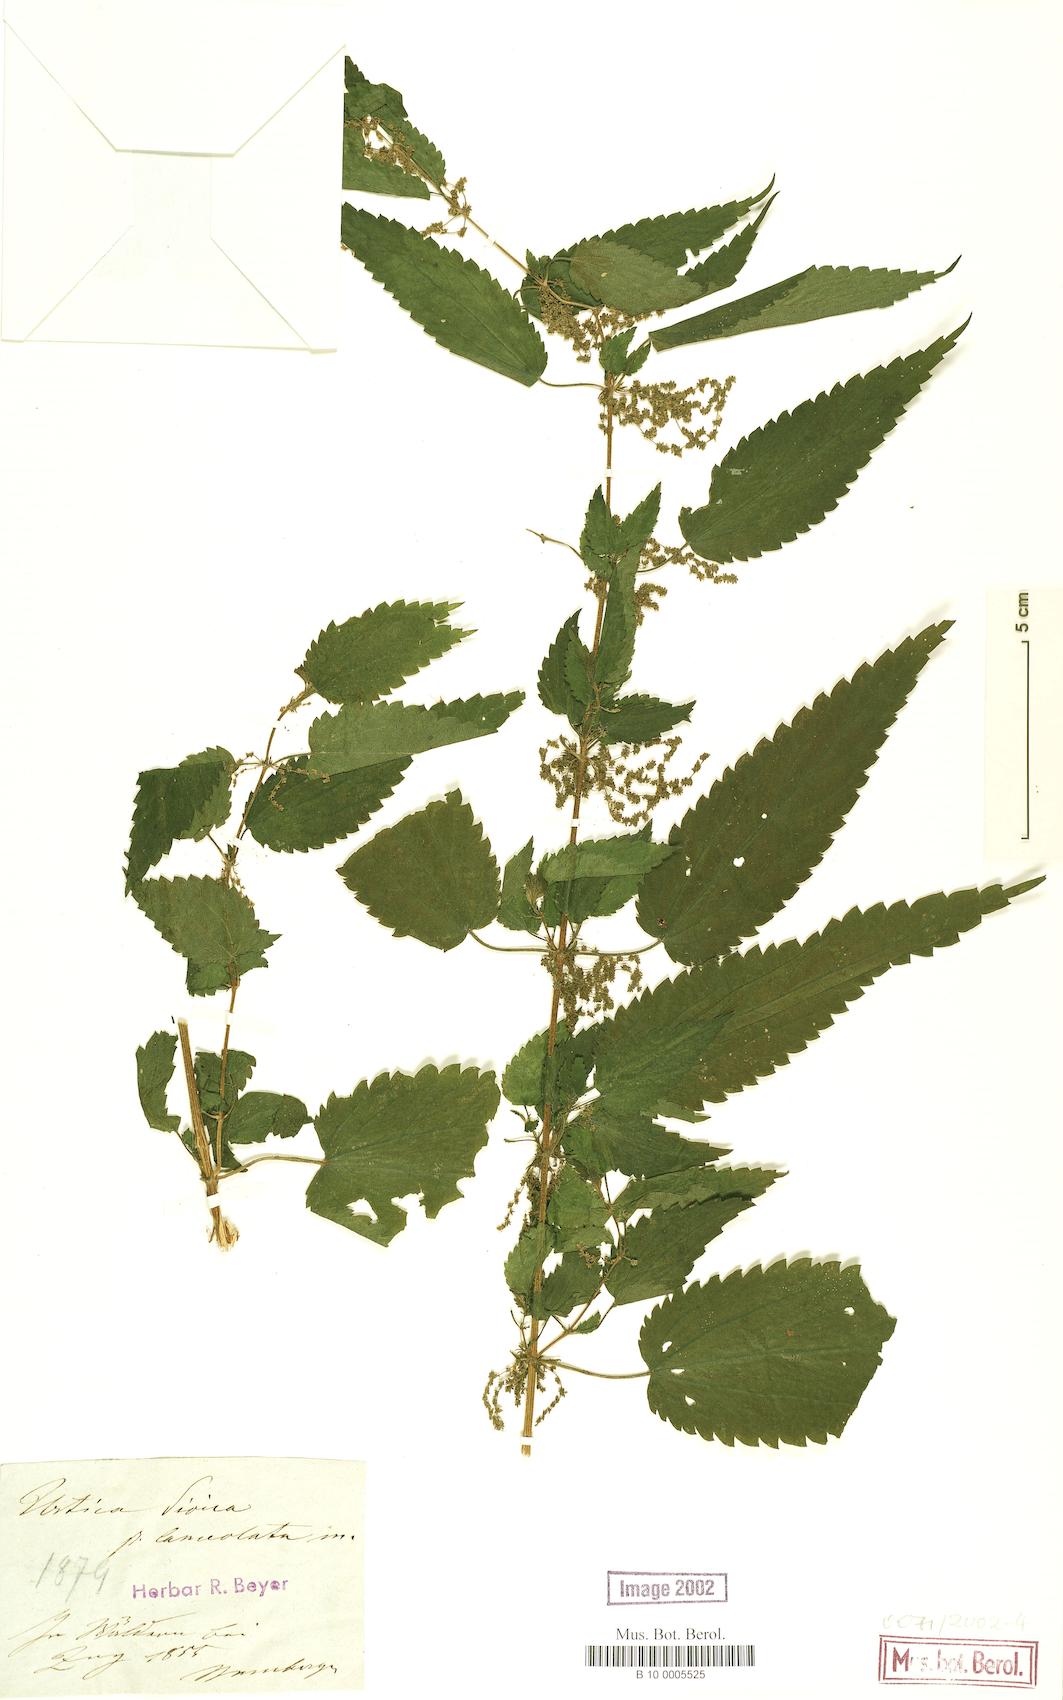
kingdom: Plantae
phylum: Tracheophyta
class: Magnoliopsida
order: Rosales
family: Urticaceae
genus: Urtica
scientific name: Urtica dioica
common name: Common nettle
